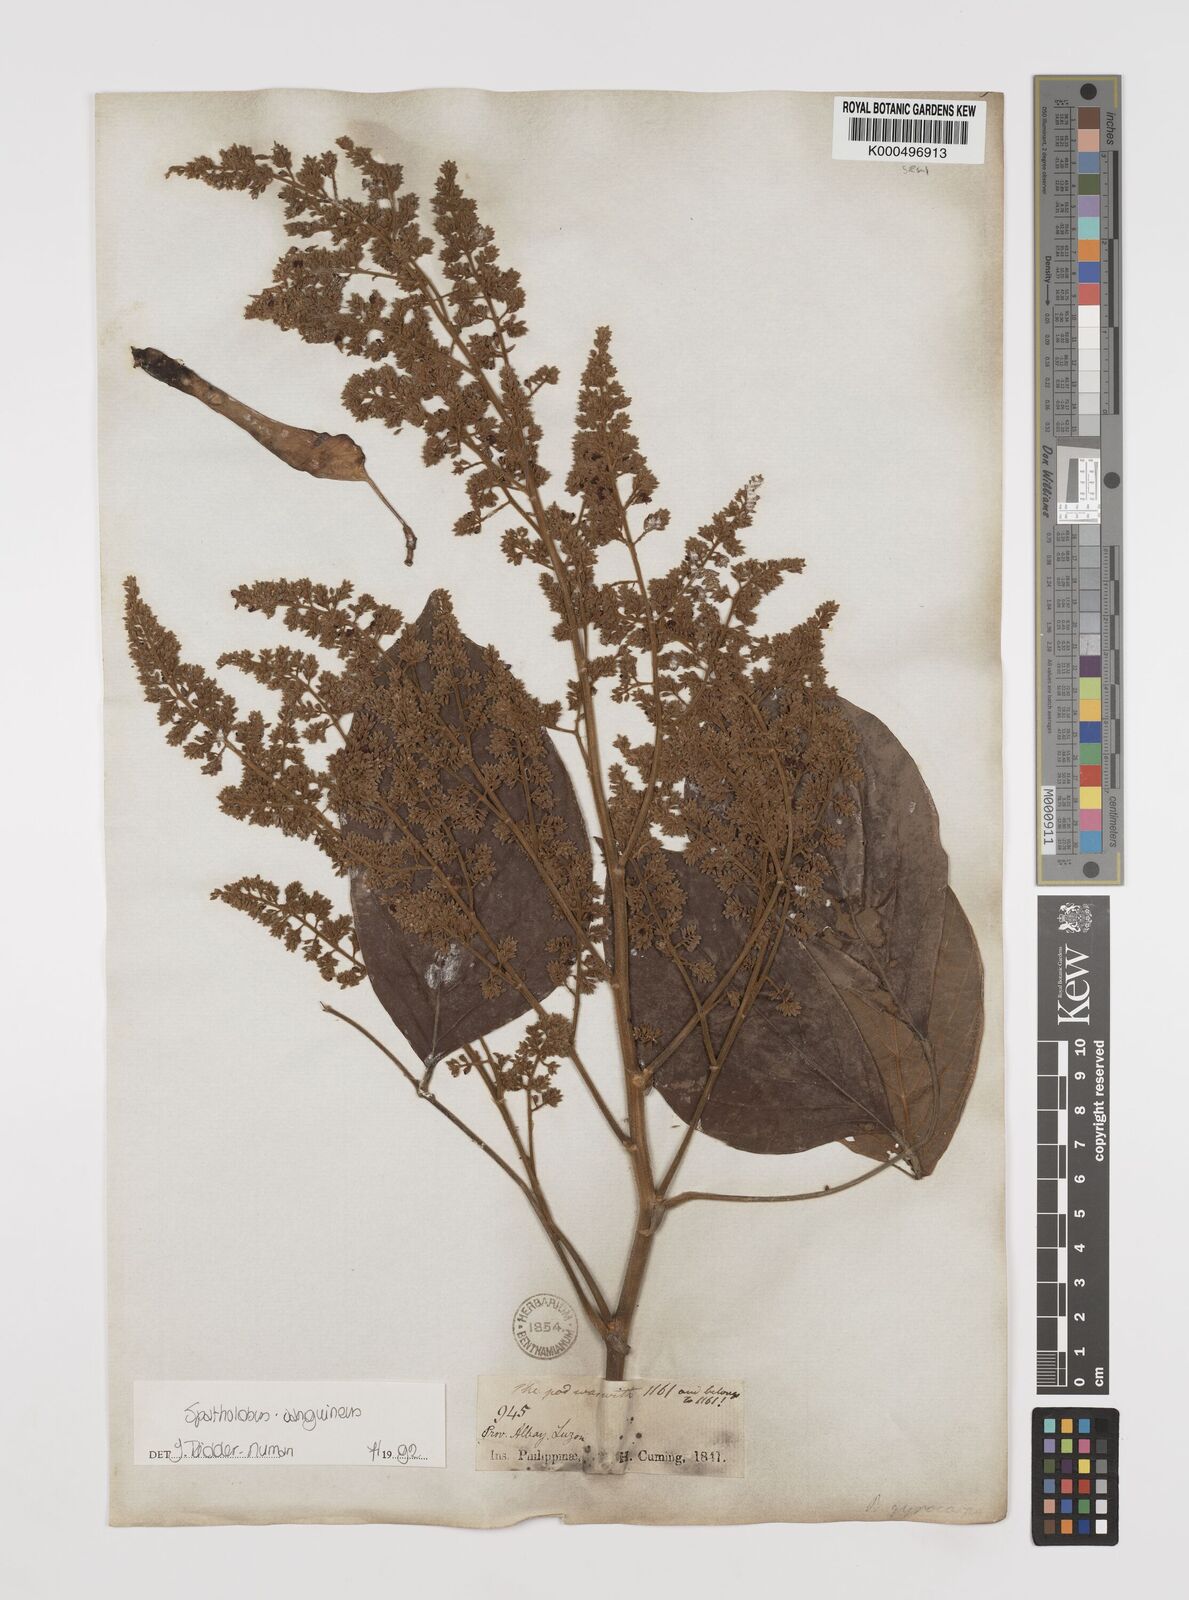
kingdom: Plantae
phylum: Tracheophyta
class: Magnoliopsida
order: Fabales
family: Fabaceae
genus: Spatholobus
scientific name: Spatholobus
